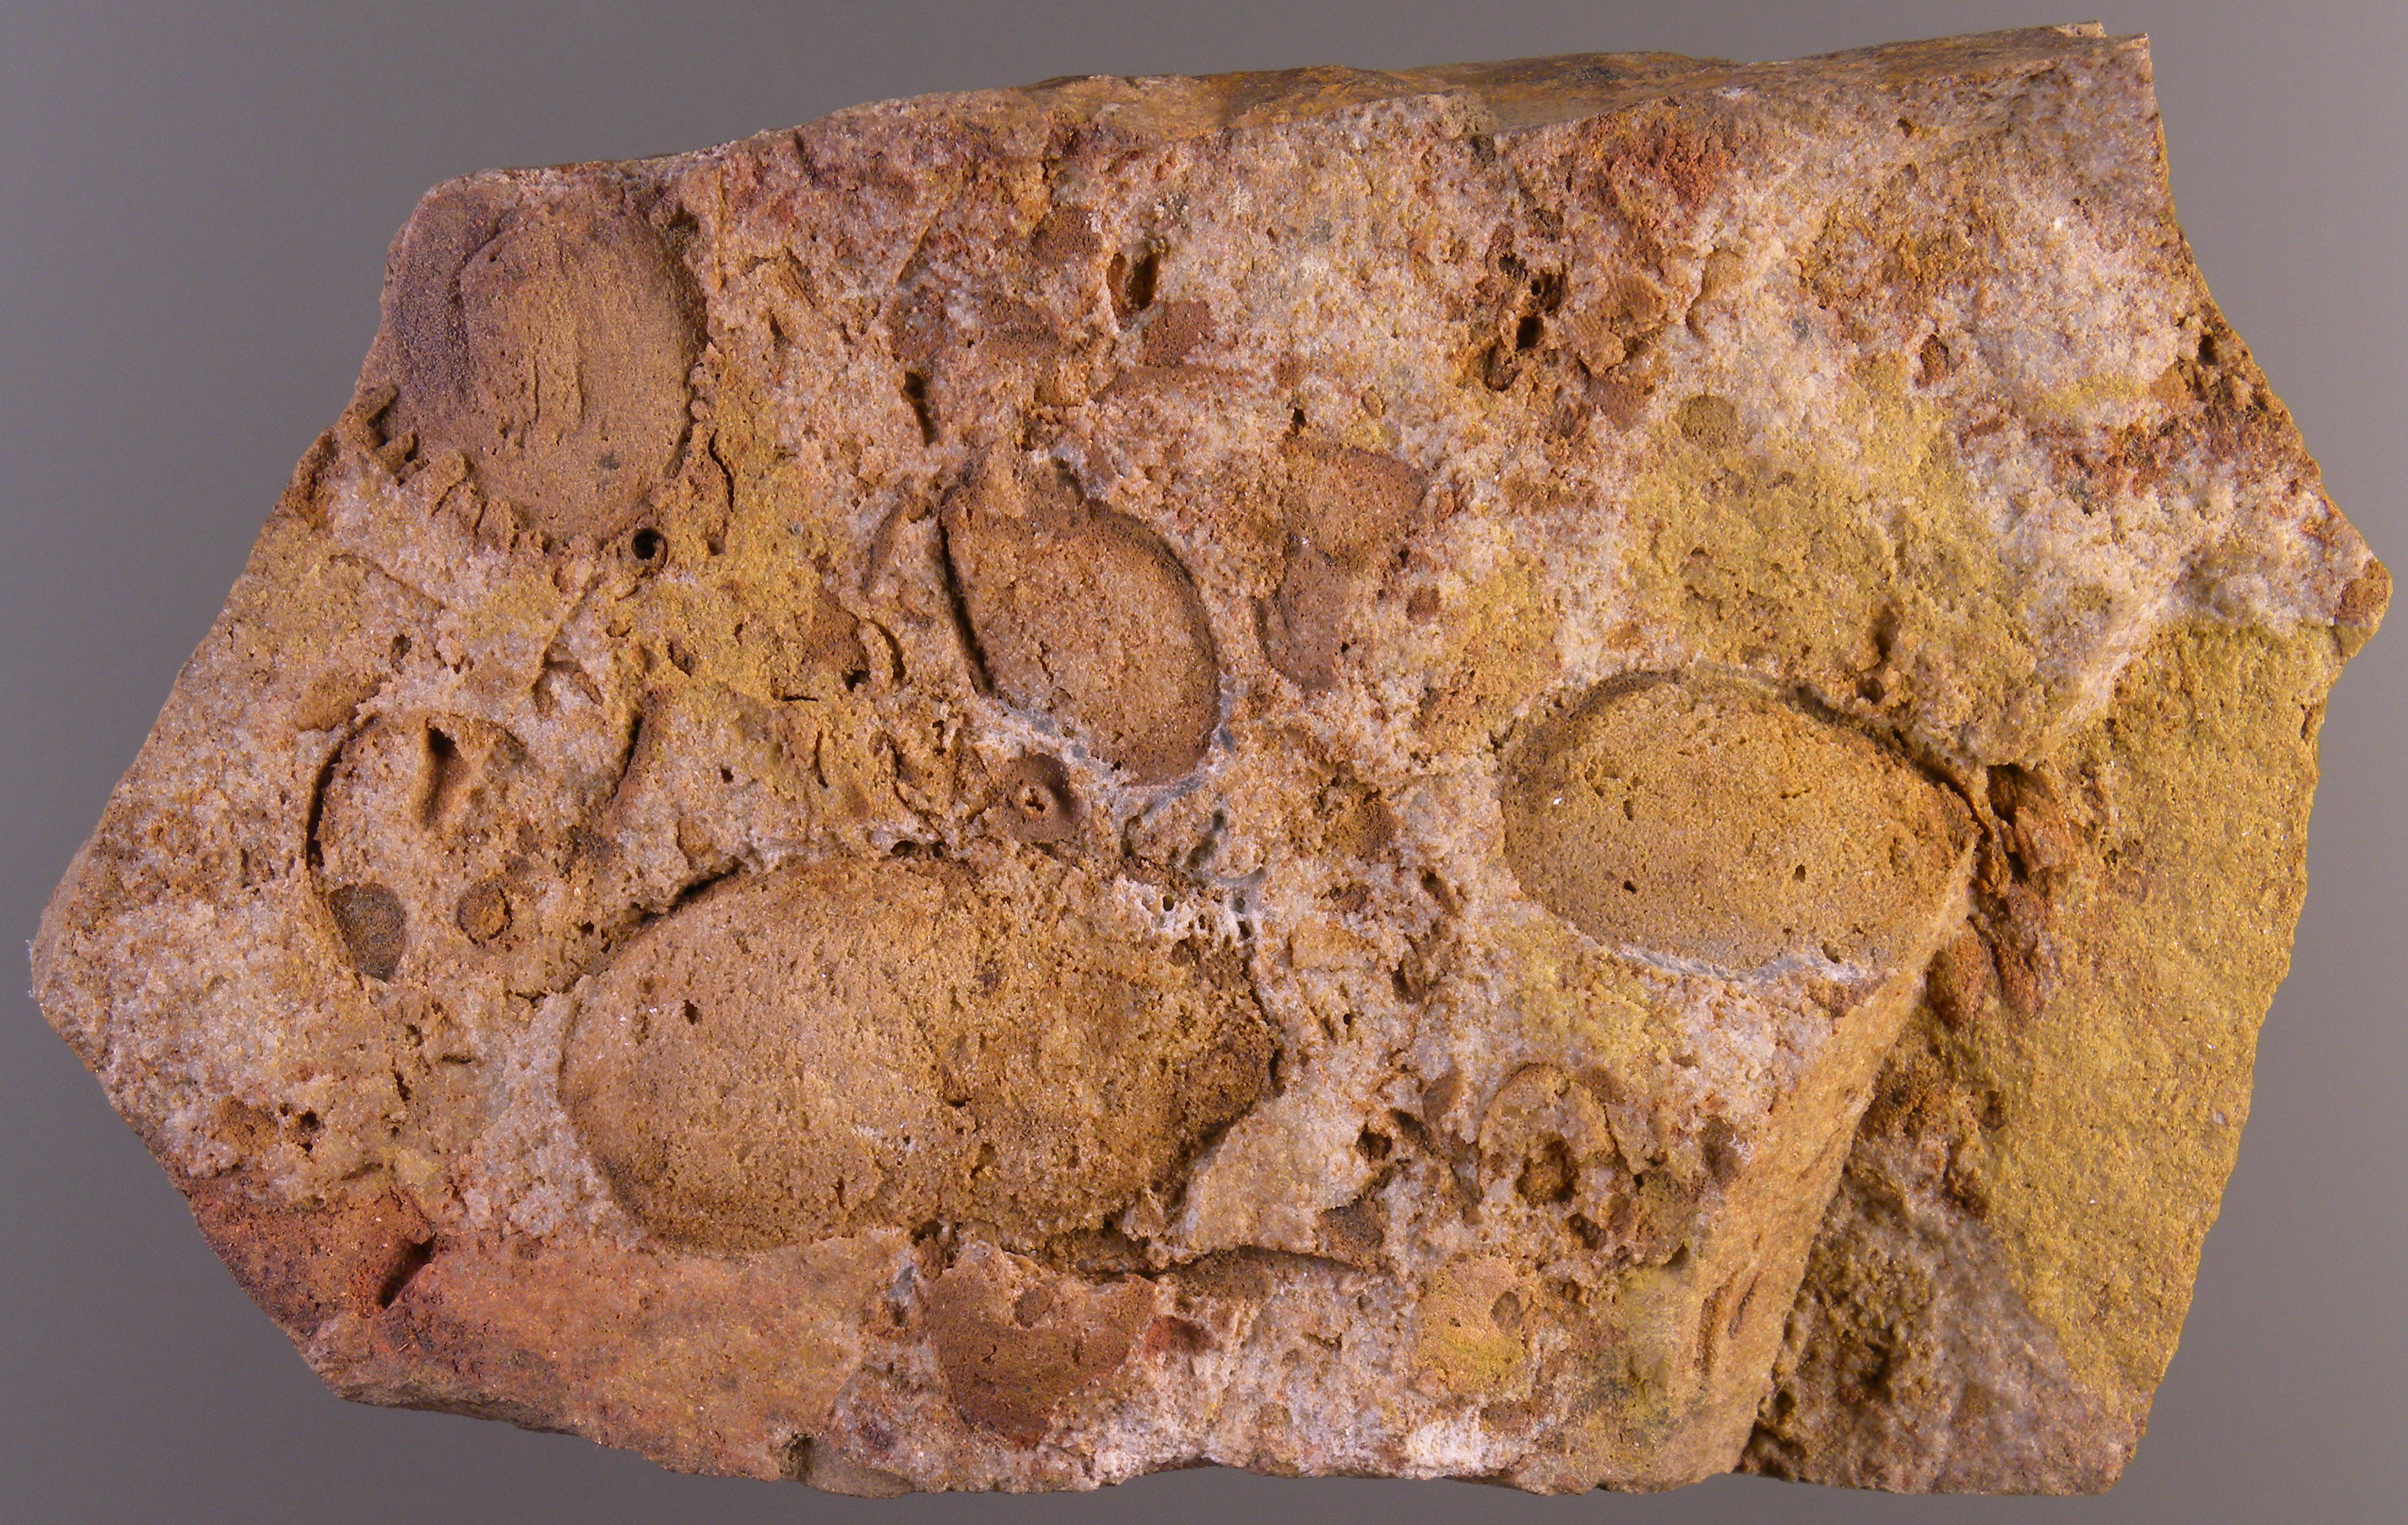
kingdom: Animalia
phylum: Mollusca
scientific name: Mollusca
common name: Mollusca
